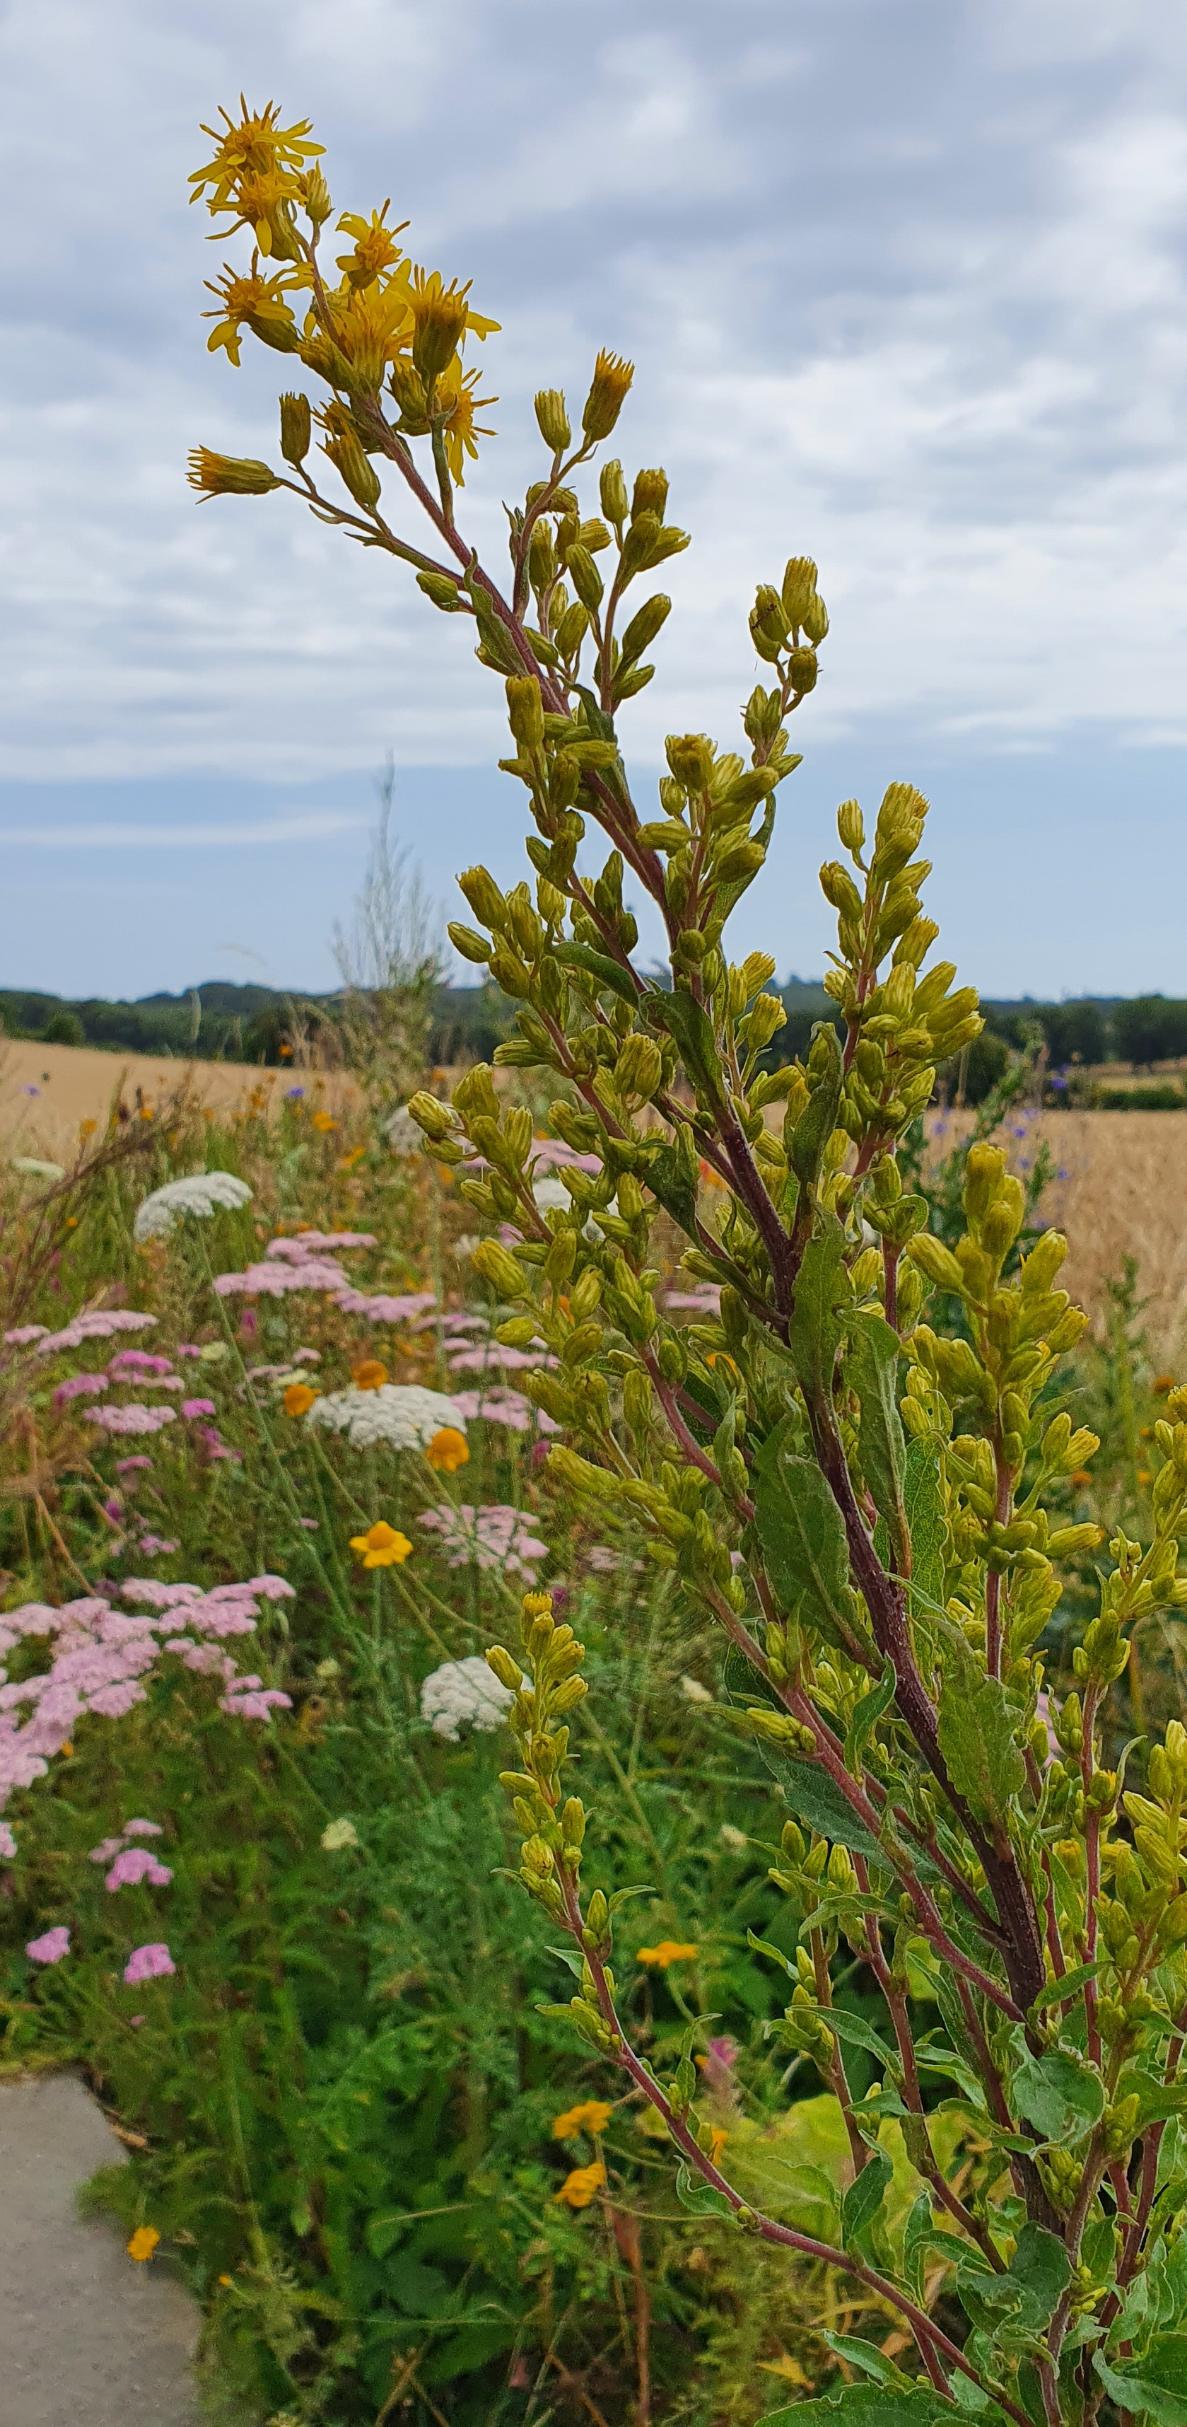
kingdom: Plantae
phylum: Tracheophyta
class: Magnoliopsida
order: Asterales
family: Asteraceae
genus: Solidago
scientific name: Solidago virgaurea
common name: Almindelig gyldenris
